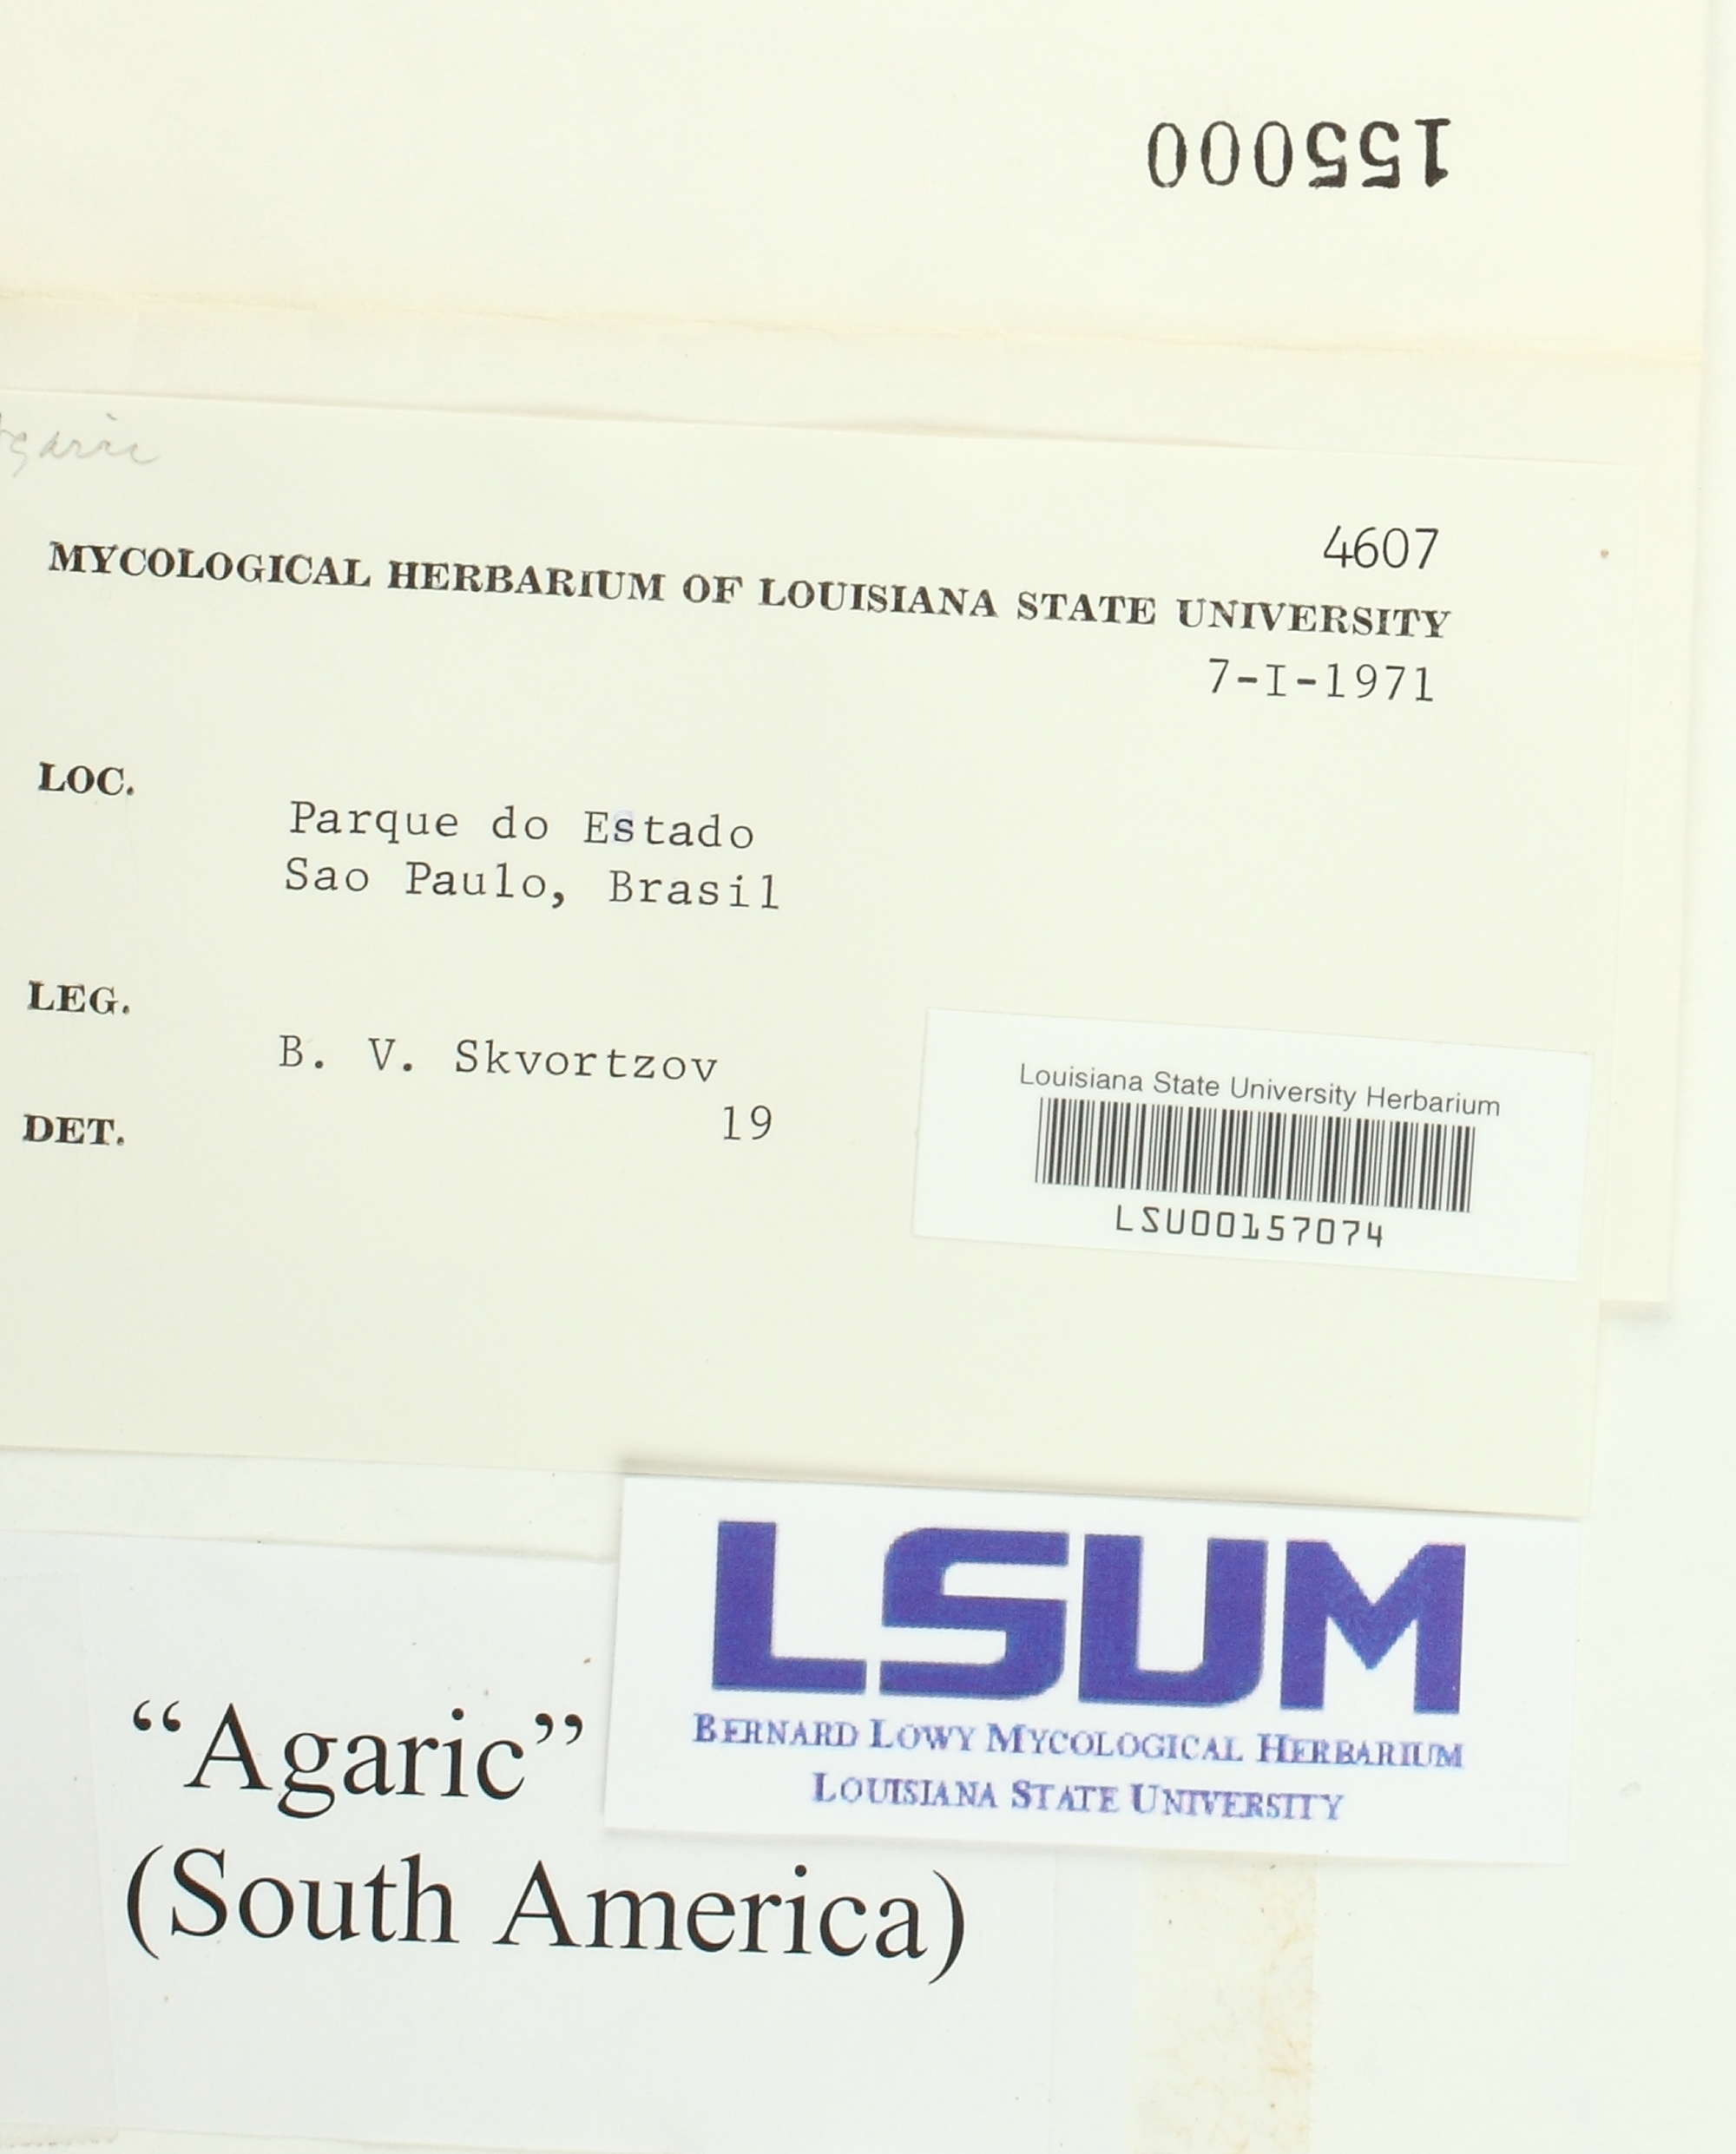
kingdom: Fungi
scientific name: Fungi
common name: Fungi
